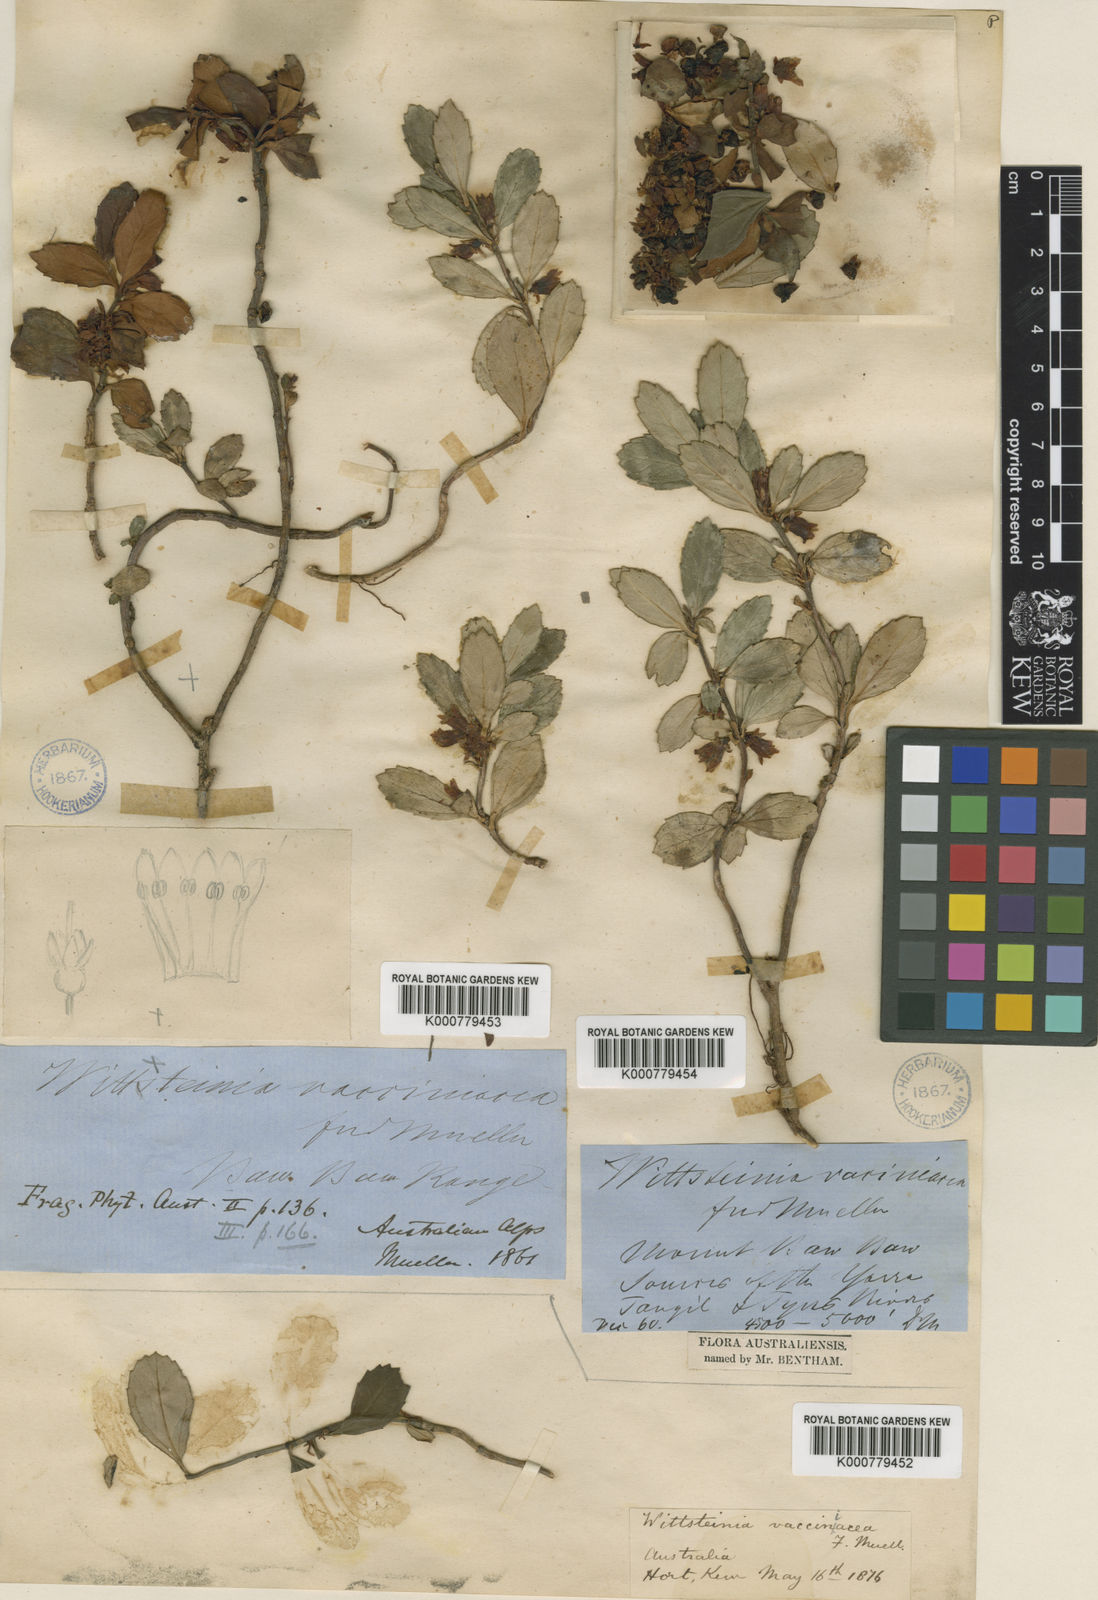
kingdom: Plantae
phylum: Tracheophyta
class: Magnoliopsida
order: Asterales
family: Alseuosmiaceae
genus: Wittsteinia
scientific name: Wittsteinia vacciniacea
